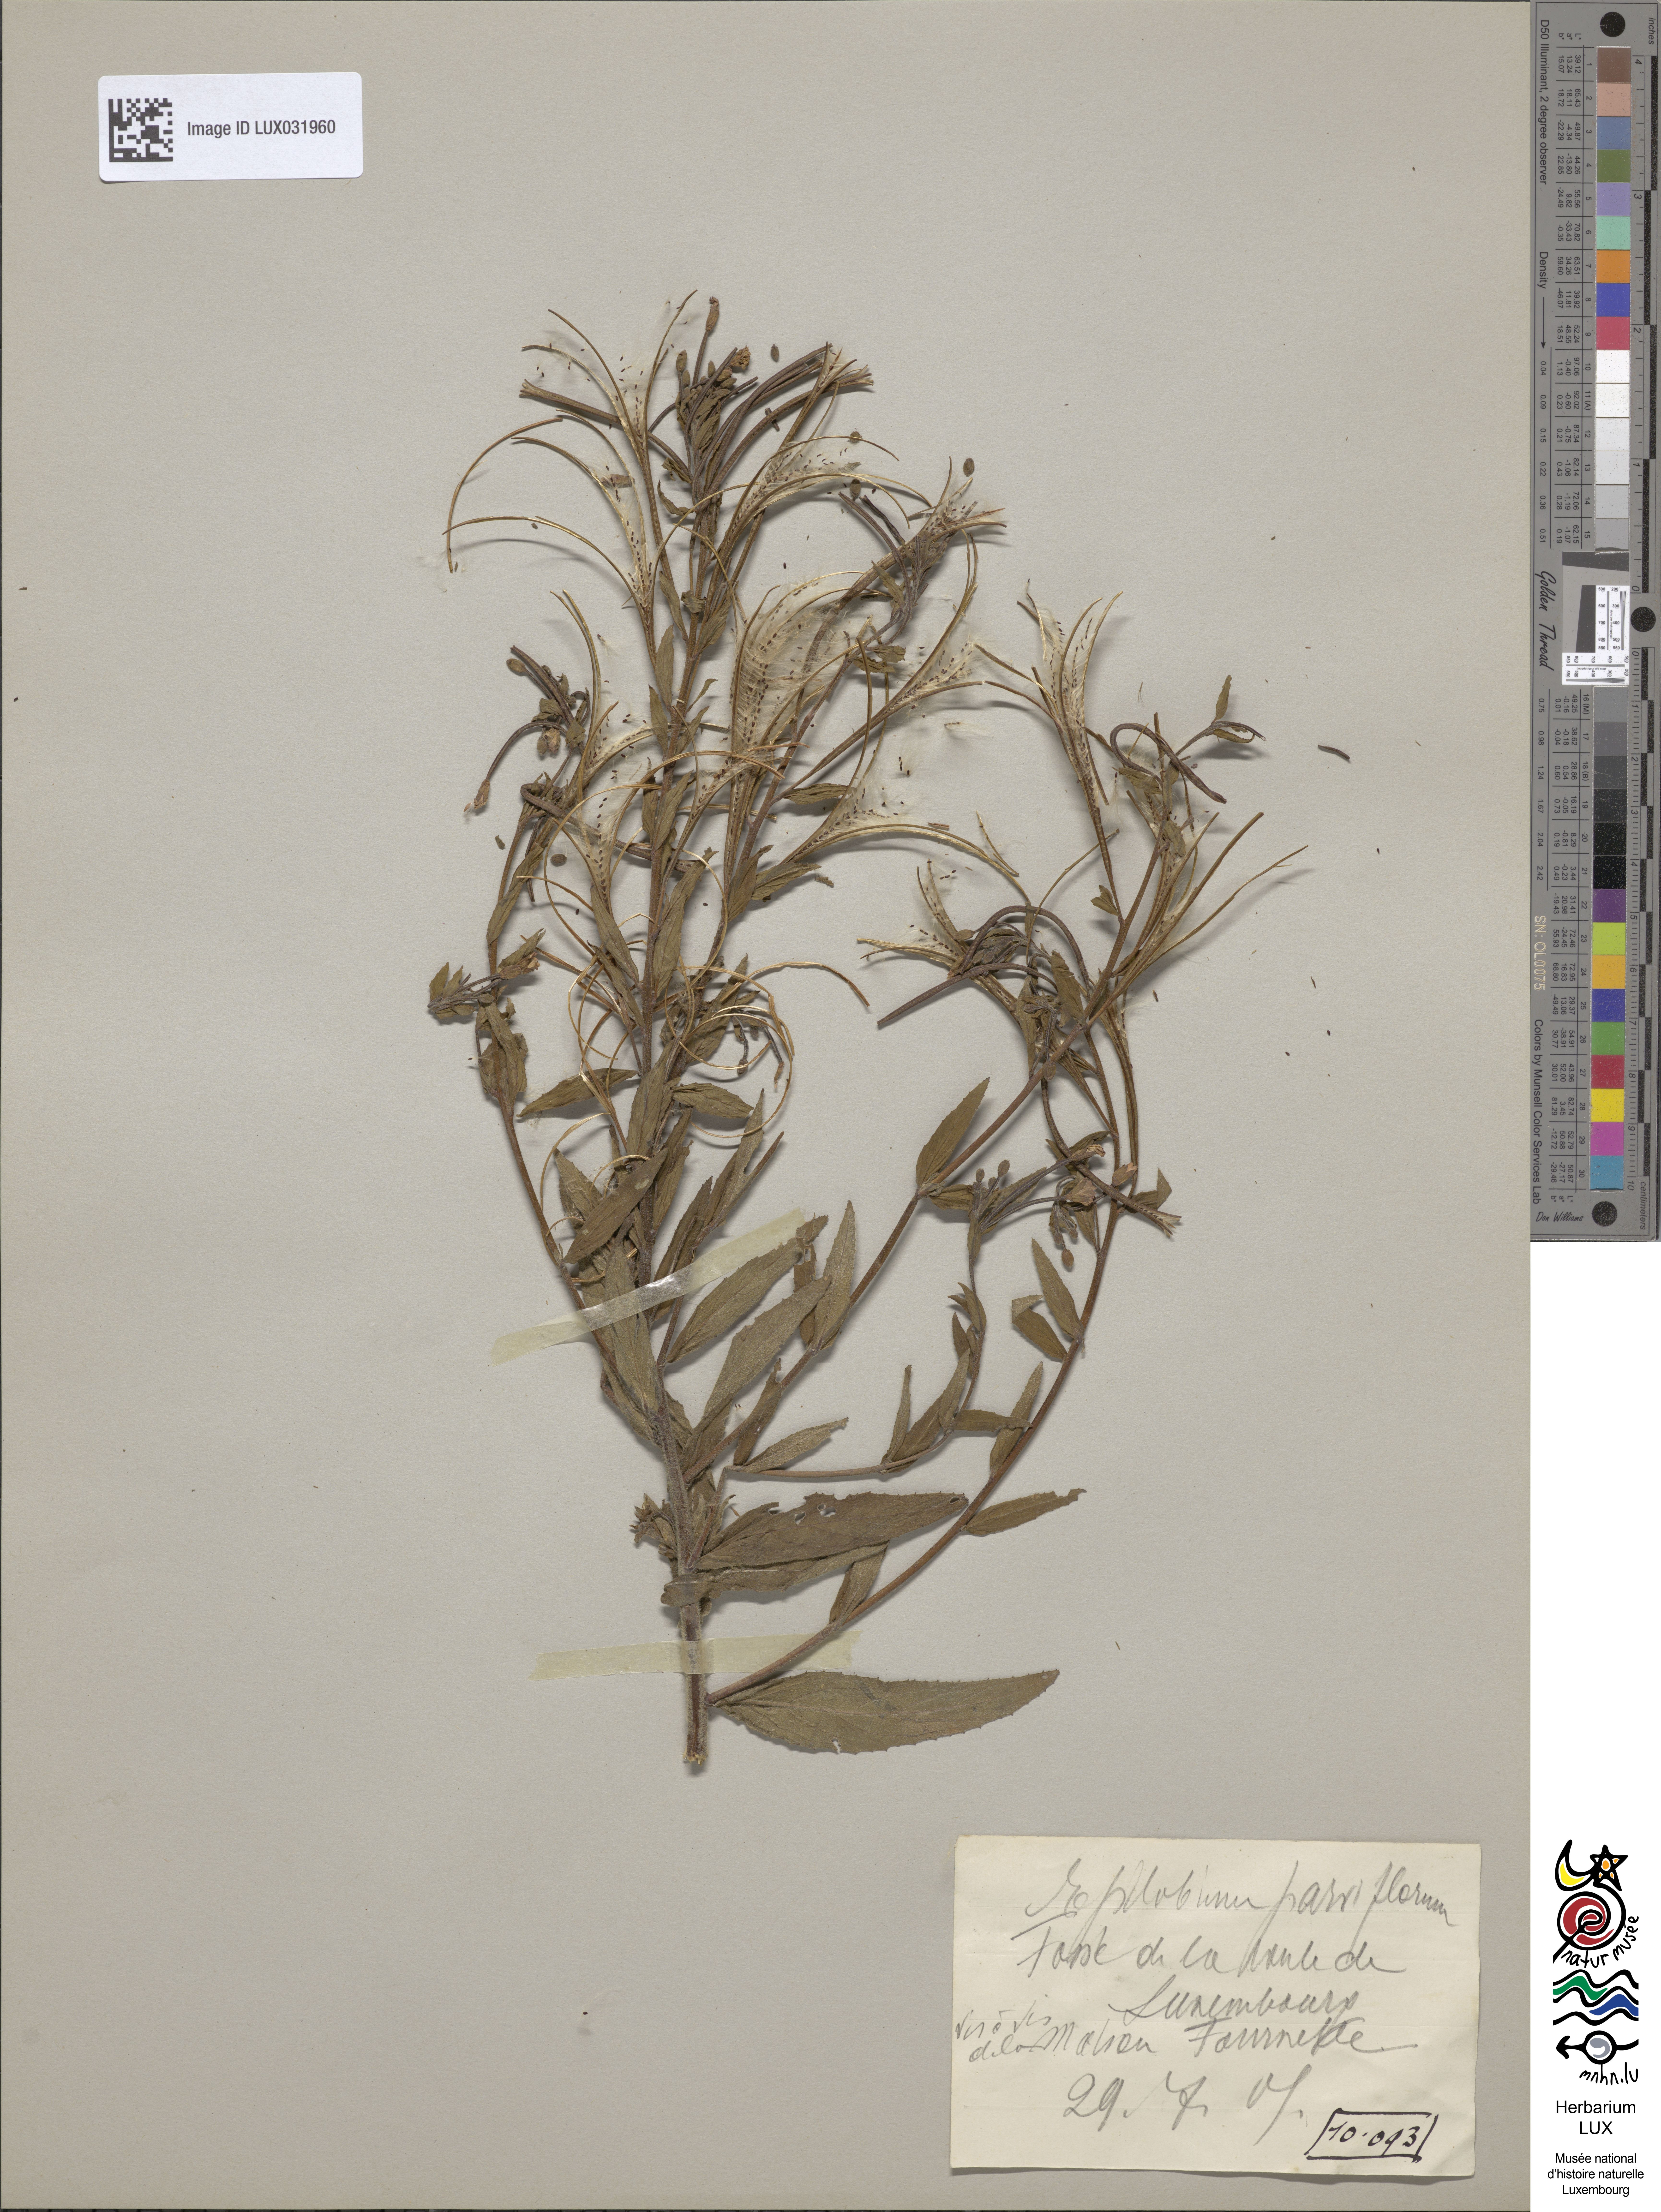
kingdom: Plantae
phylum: Tracheophyta
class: Magnoliopsida
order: Myrtales
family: Onagraceae
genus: Epilobium
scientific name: Epilobium parviflorum
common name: Hoary willowherb
